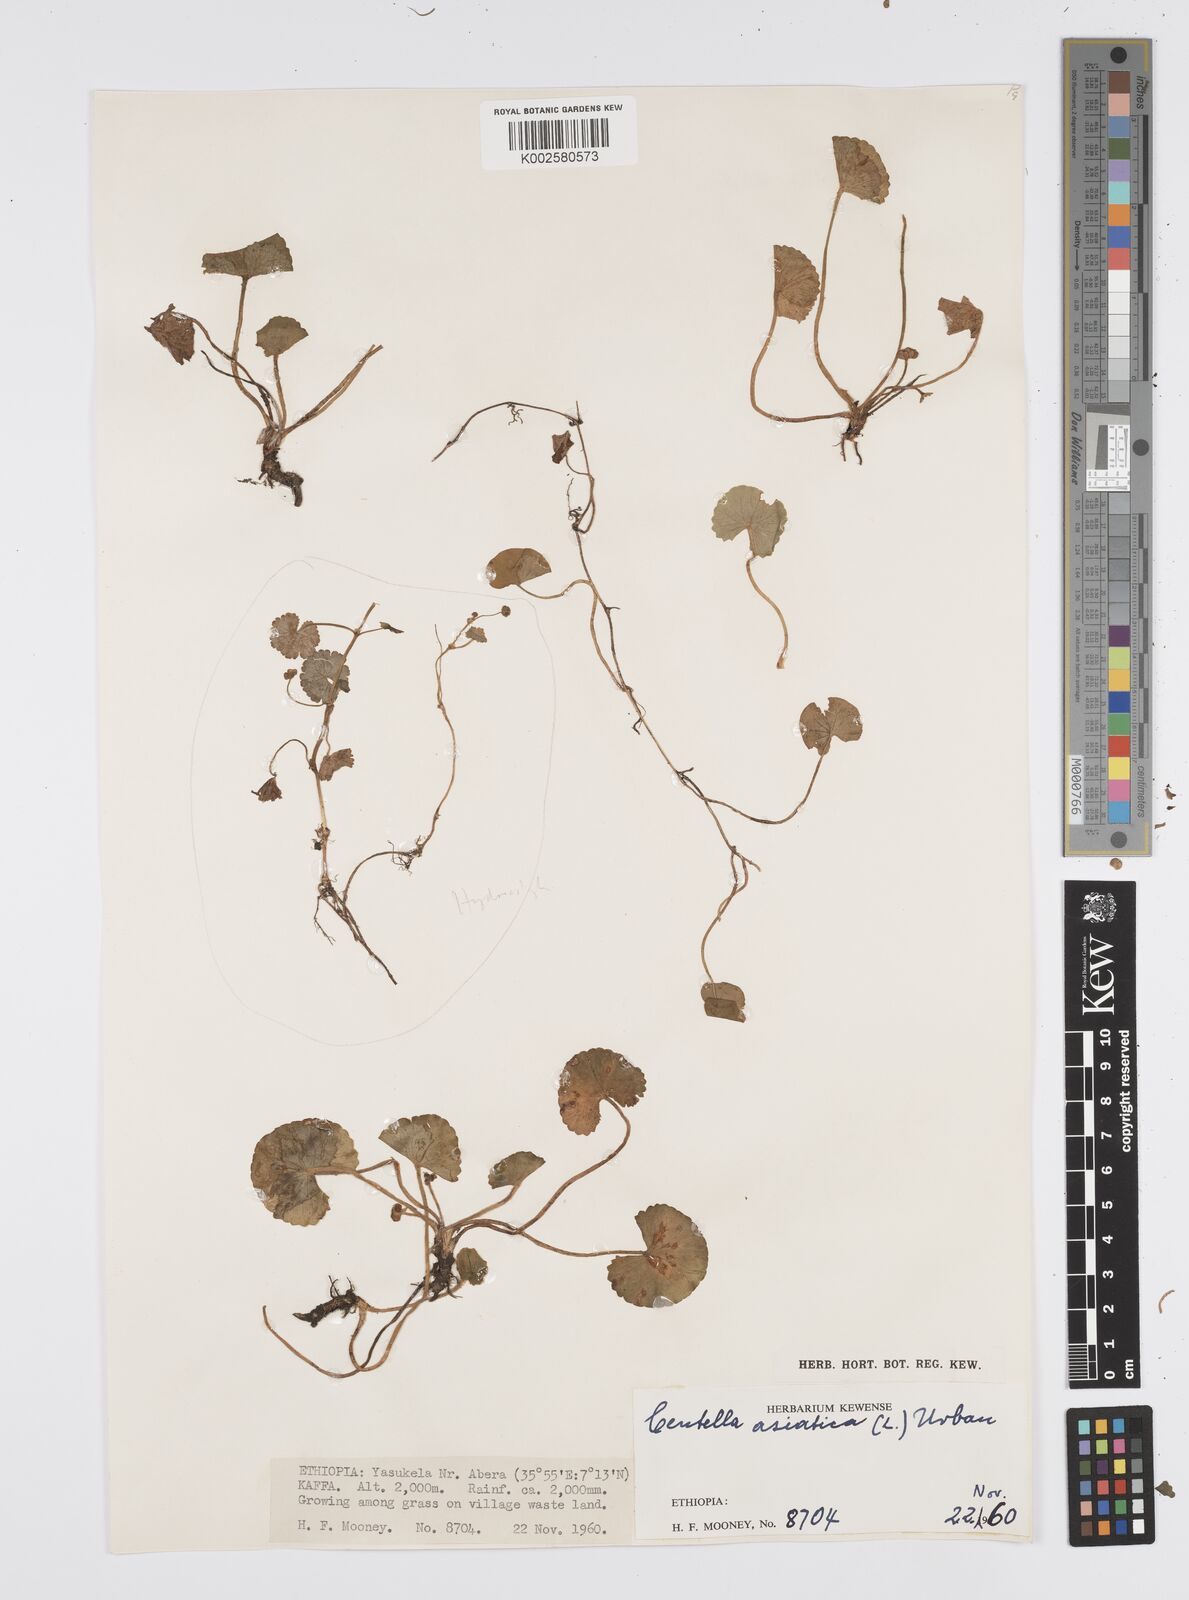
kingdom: Plantae
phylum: Tracheophyta
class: Magnoliopsida
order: Apiales
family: Apiaceae
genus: Centella
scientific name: Centella asiatica
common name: Spadeleaf
